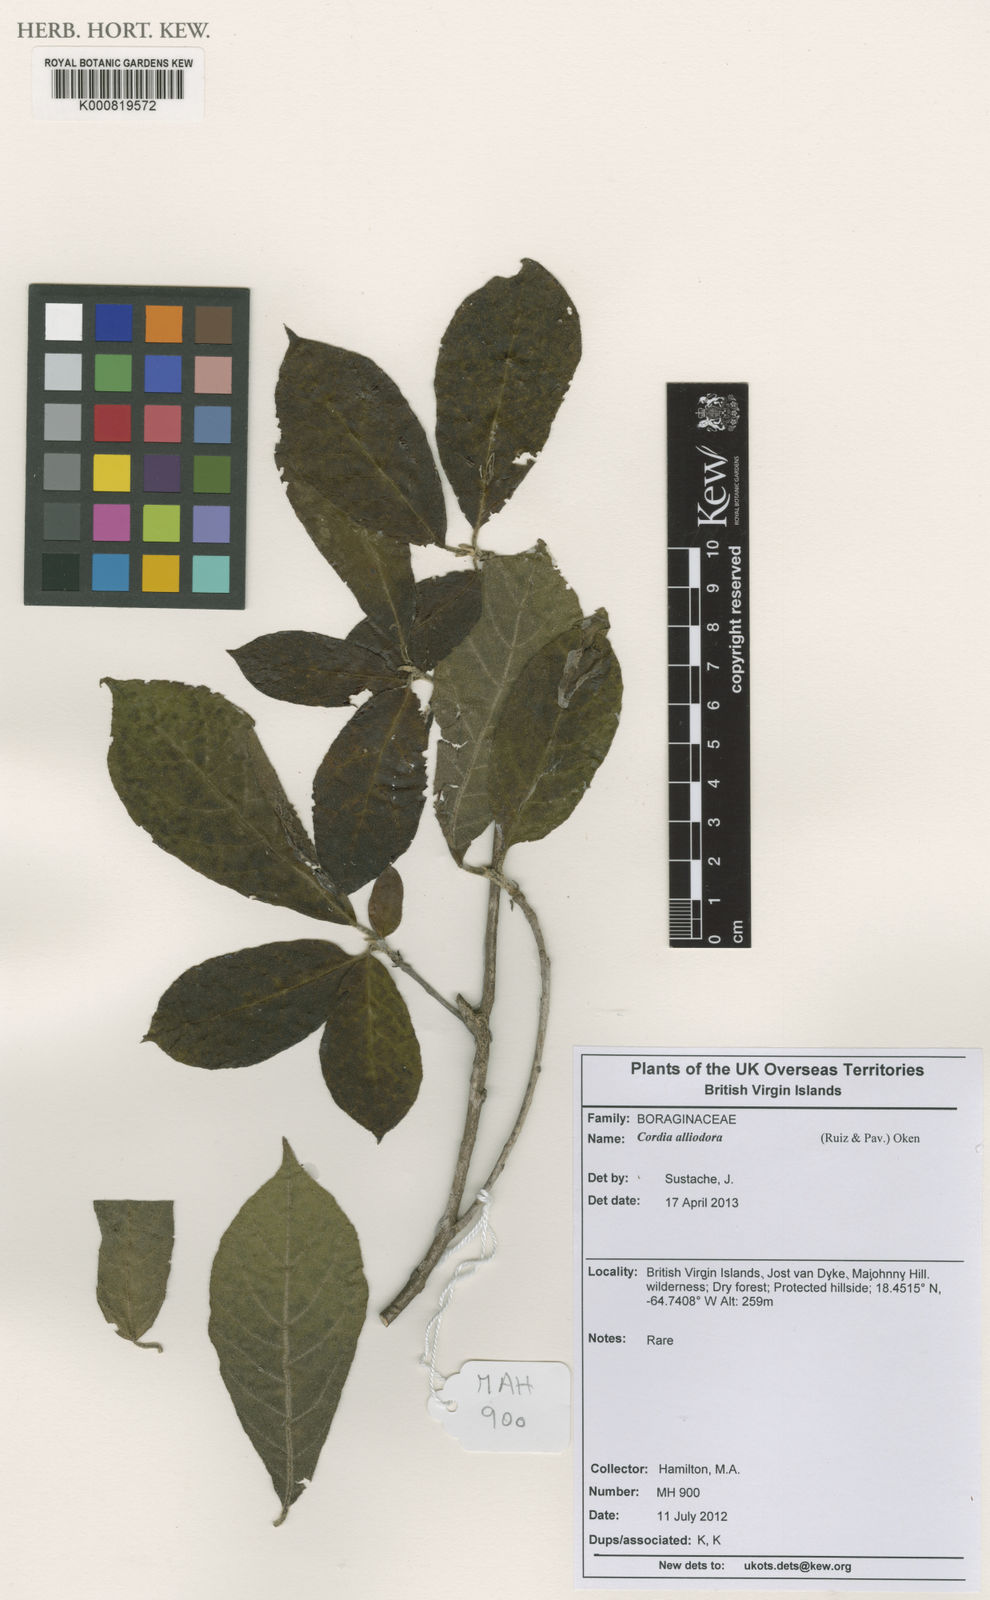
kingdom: Plantae
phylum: Tracheophyta
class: Magnoliopsida
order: Boraginales
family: Cordiaceae
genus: Cordia
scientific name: Cordia alliodora
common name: Spanish elm
